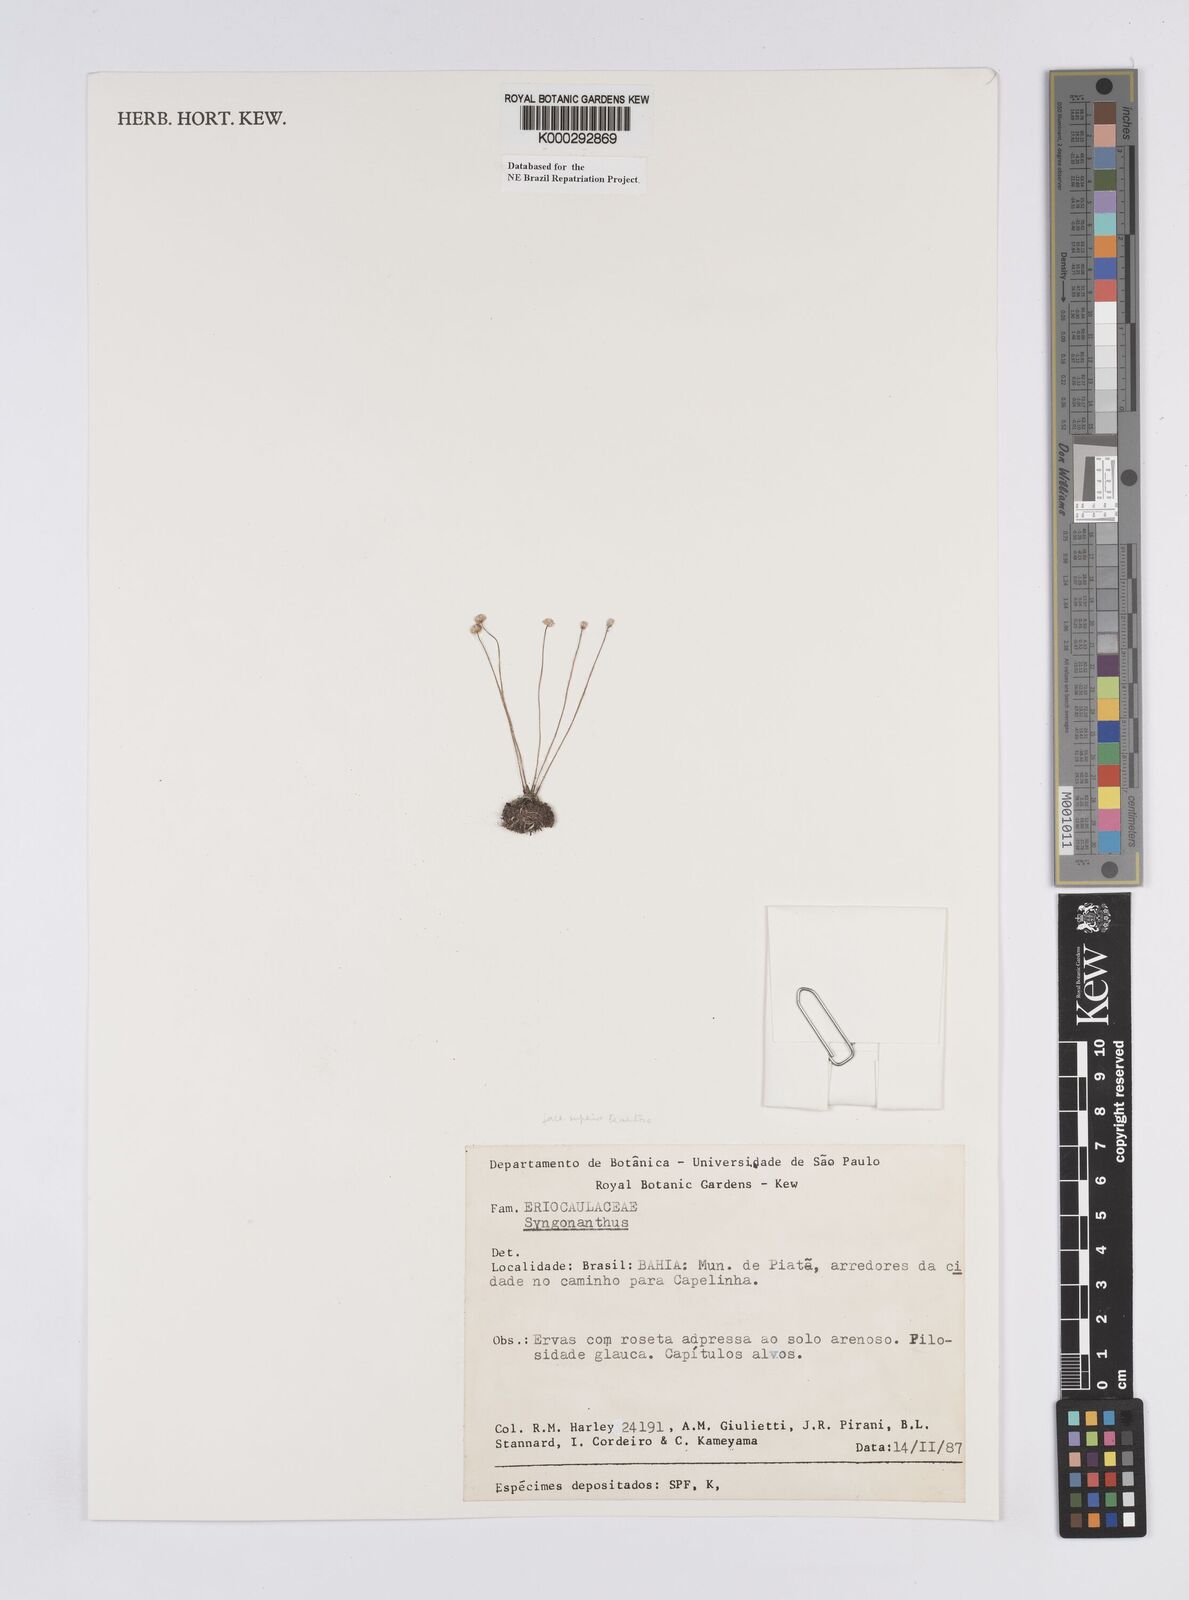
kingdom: Plantae
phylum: Tracheophyta
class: Liliopsida
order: Poales
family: Eriocaulaceae
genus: Syngonanthus
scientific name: Syngonanthus
